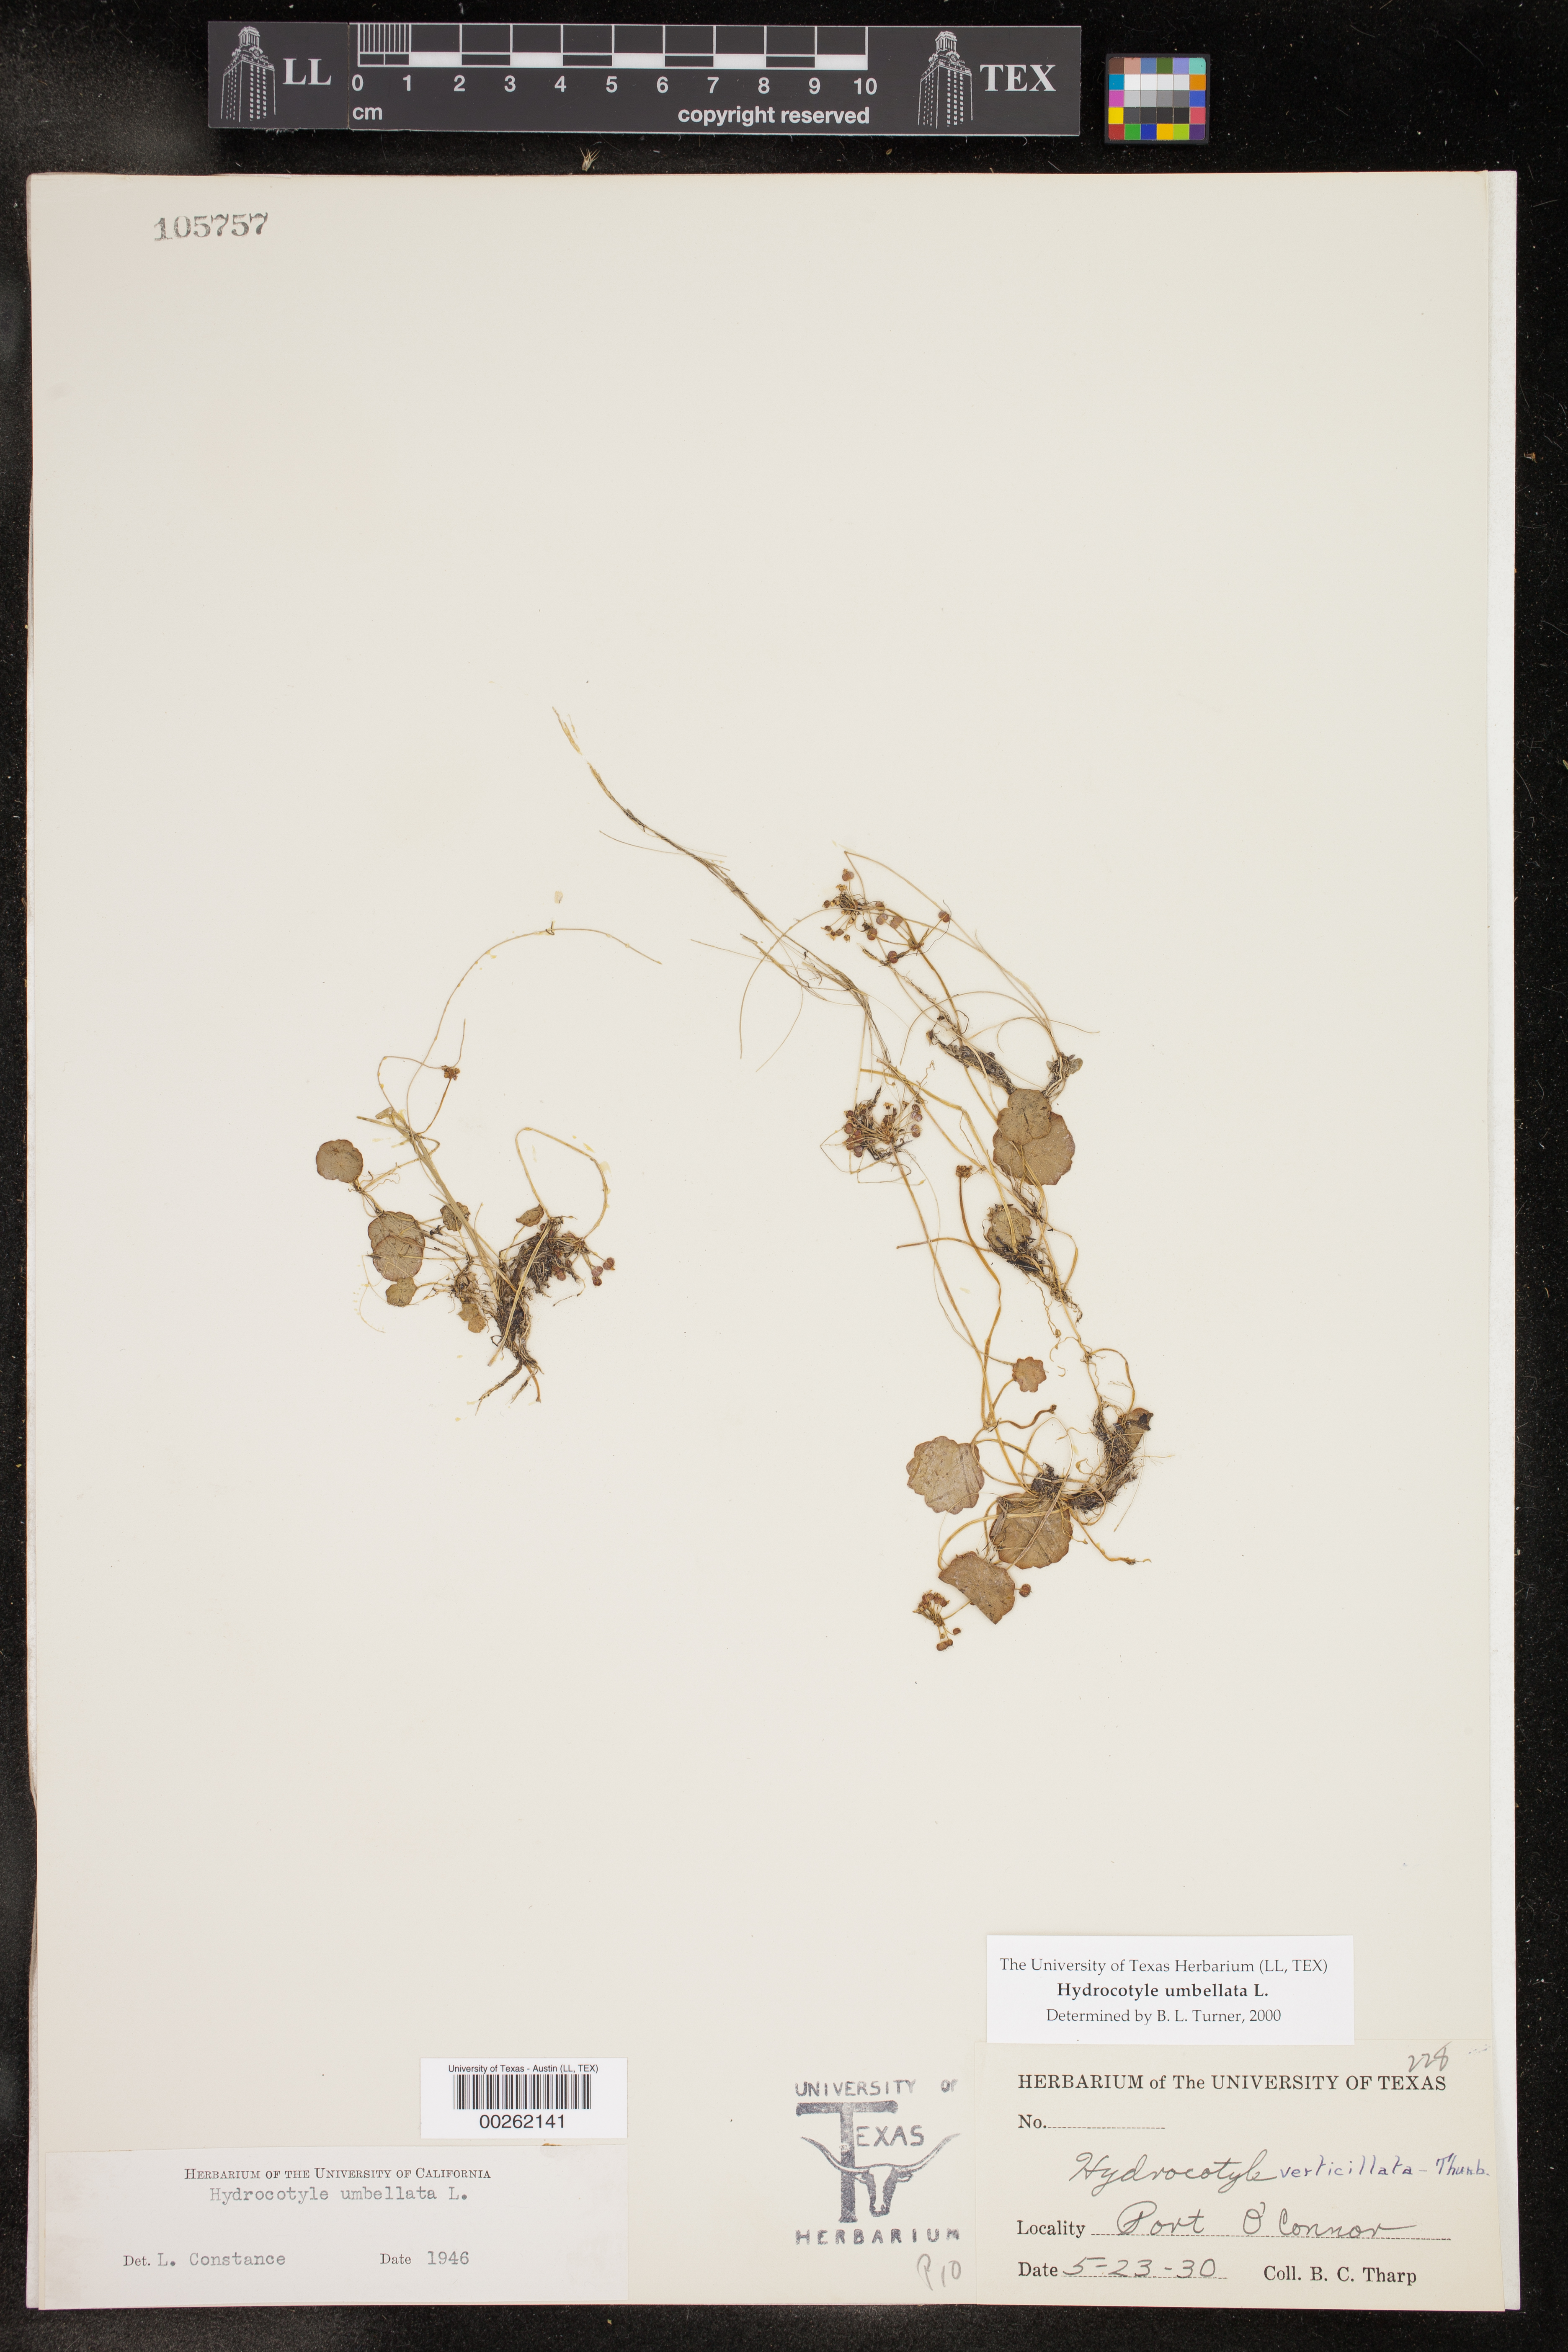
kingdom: Plantae
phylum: Tracheophyta
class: Magnoliopsida
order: Apiales
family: Araliaceae
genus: Hydrocotyle
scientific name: Hydrocotyle umbellata
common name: Water pennywort
